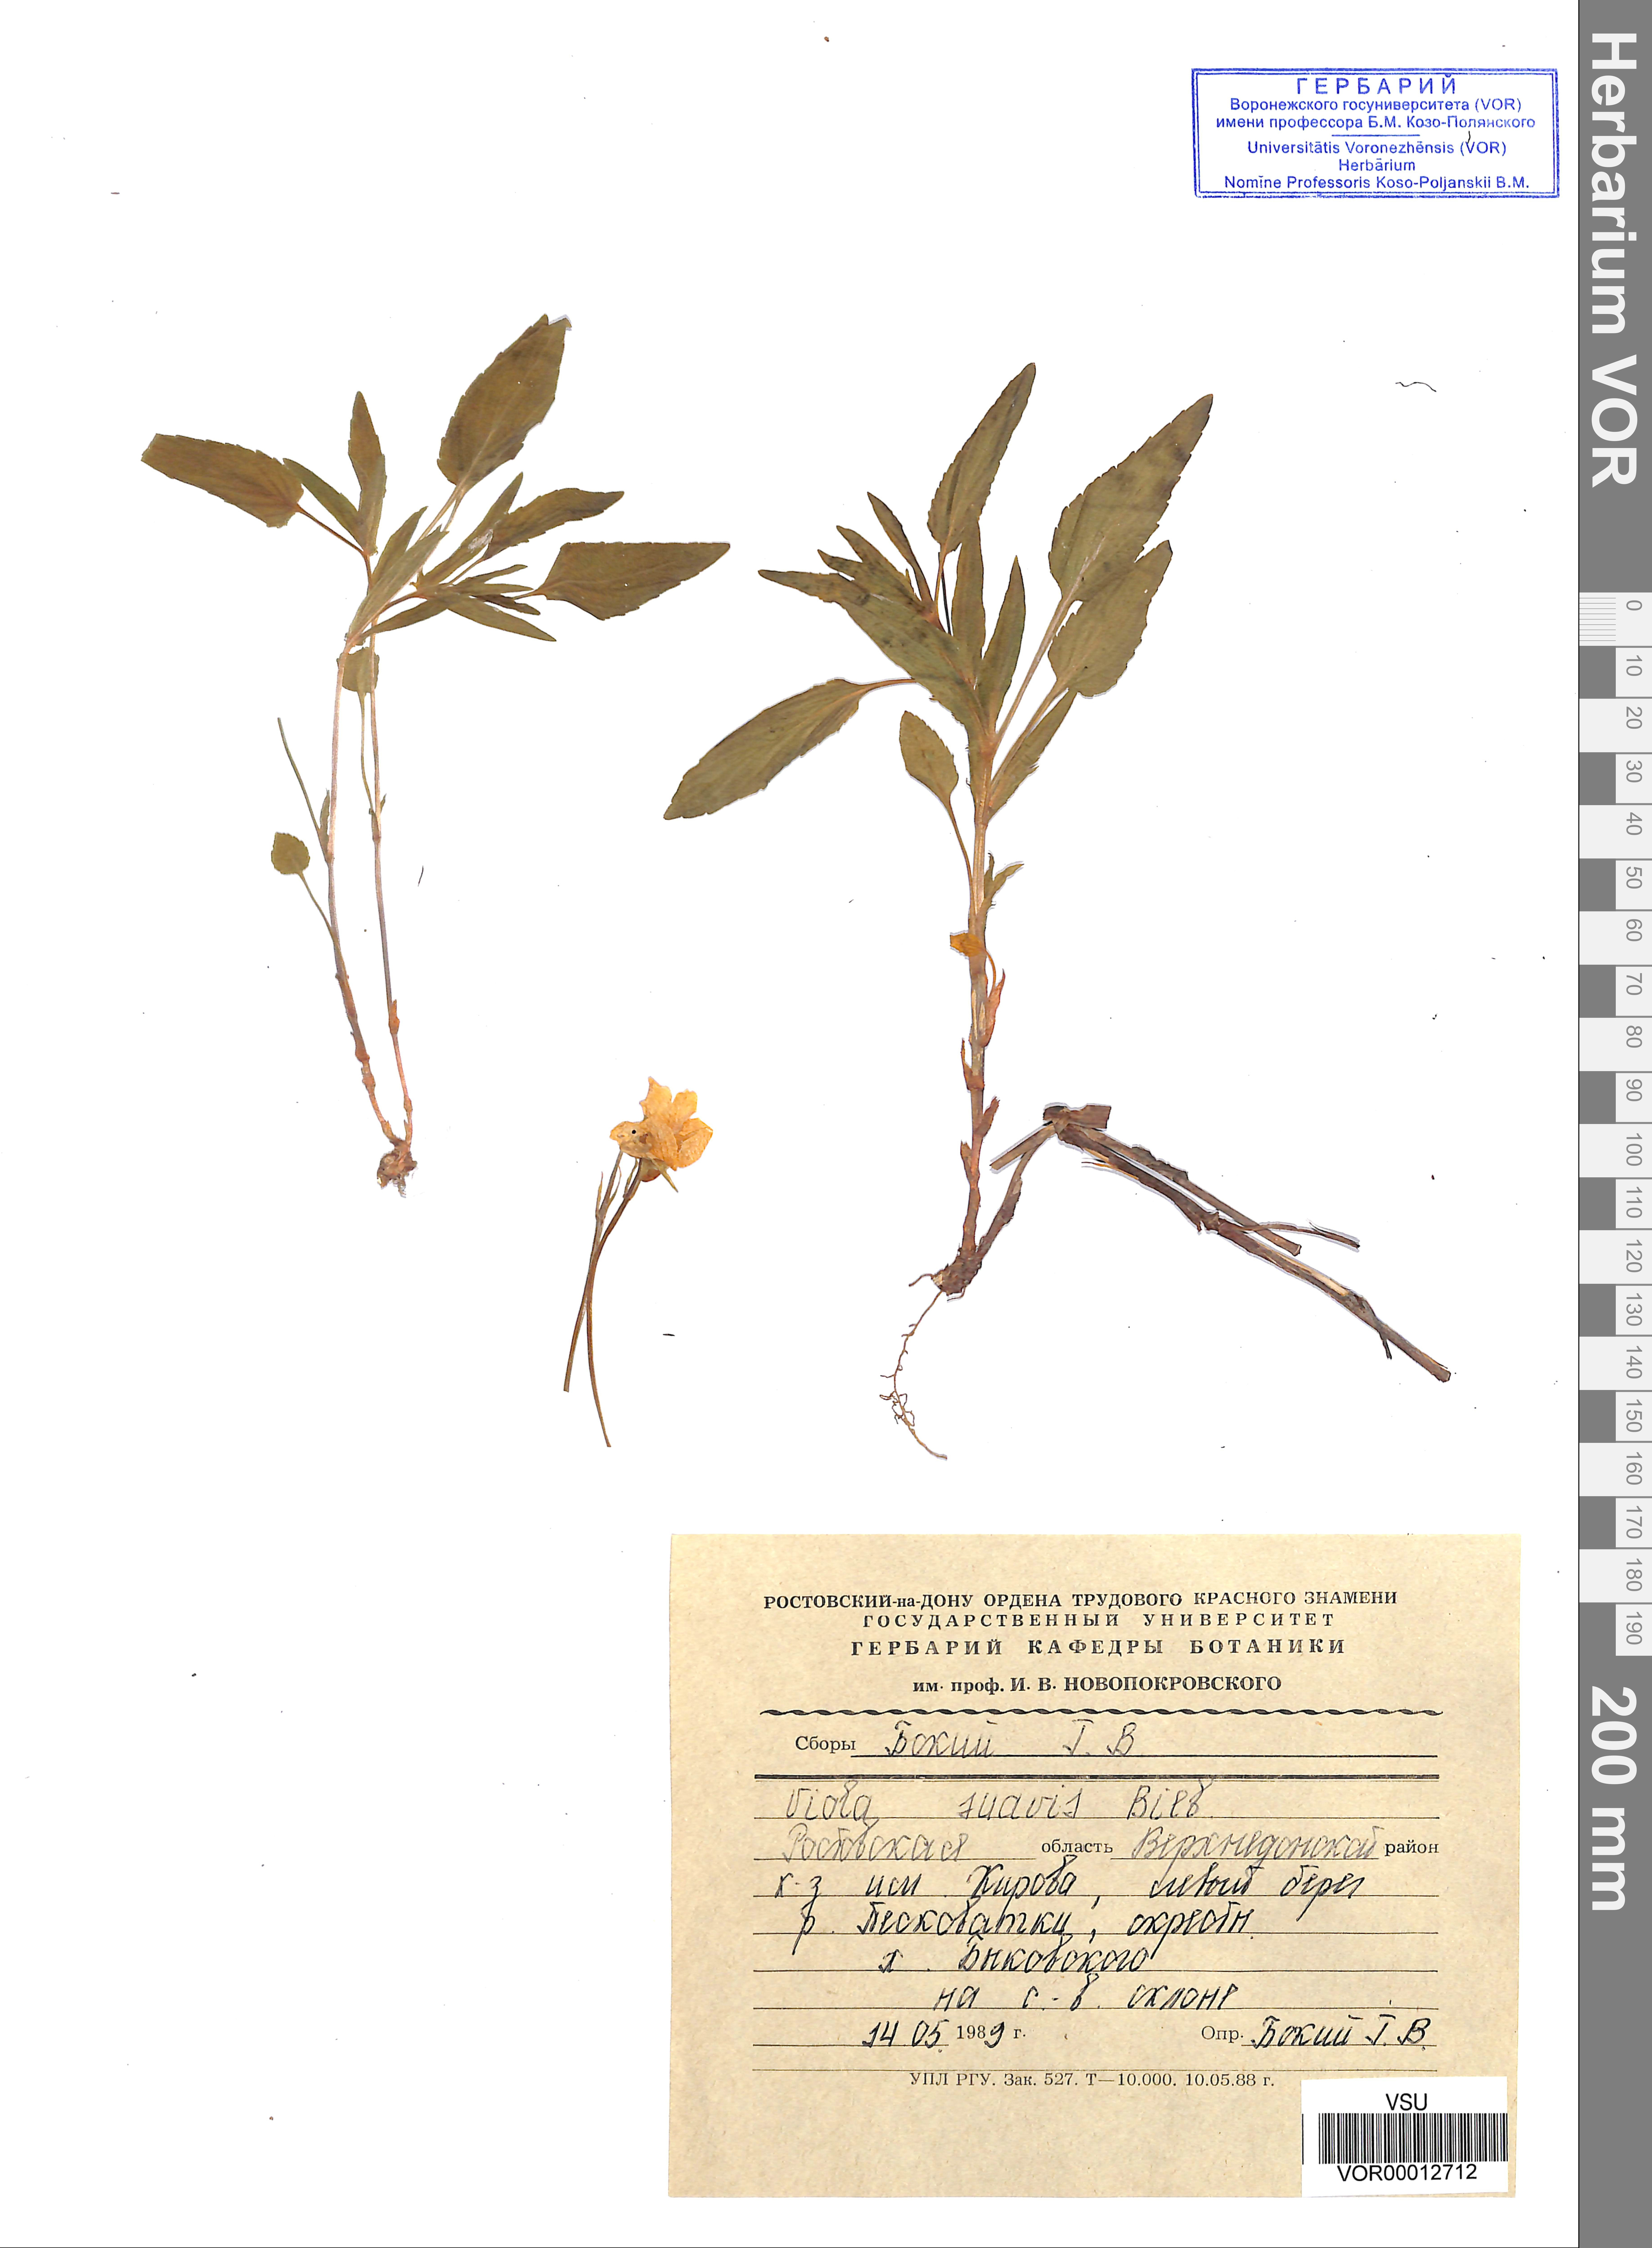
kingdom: Plantae
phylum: Tracheophyta
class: Magnoliopsida
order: Malpighiales
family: Violaceae
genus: Viola
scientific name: Viola suavis
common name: Russian violet
